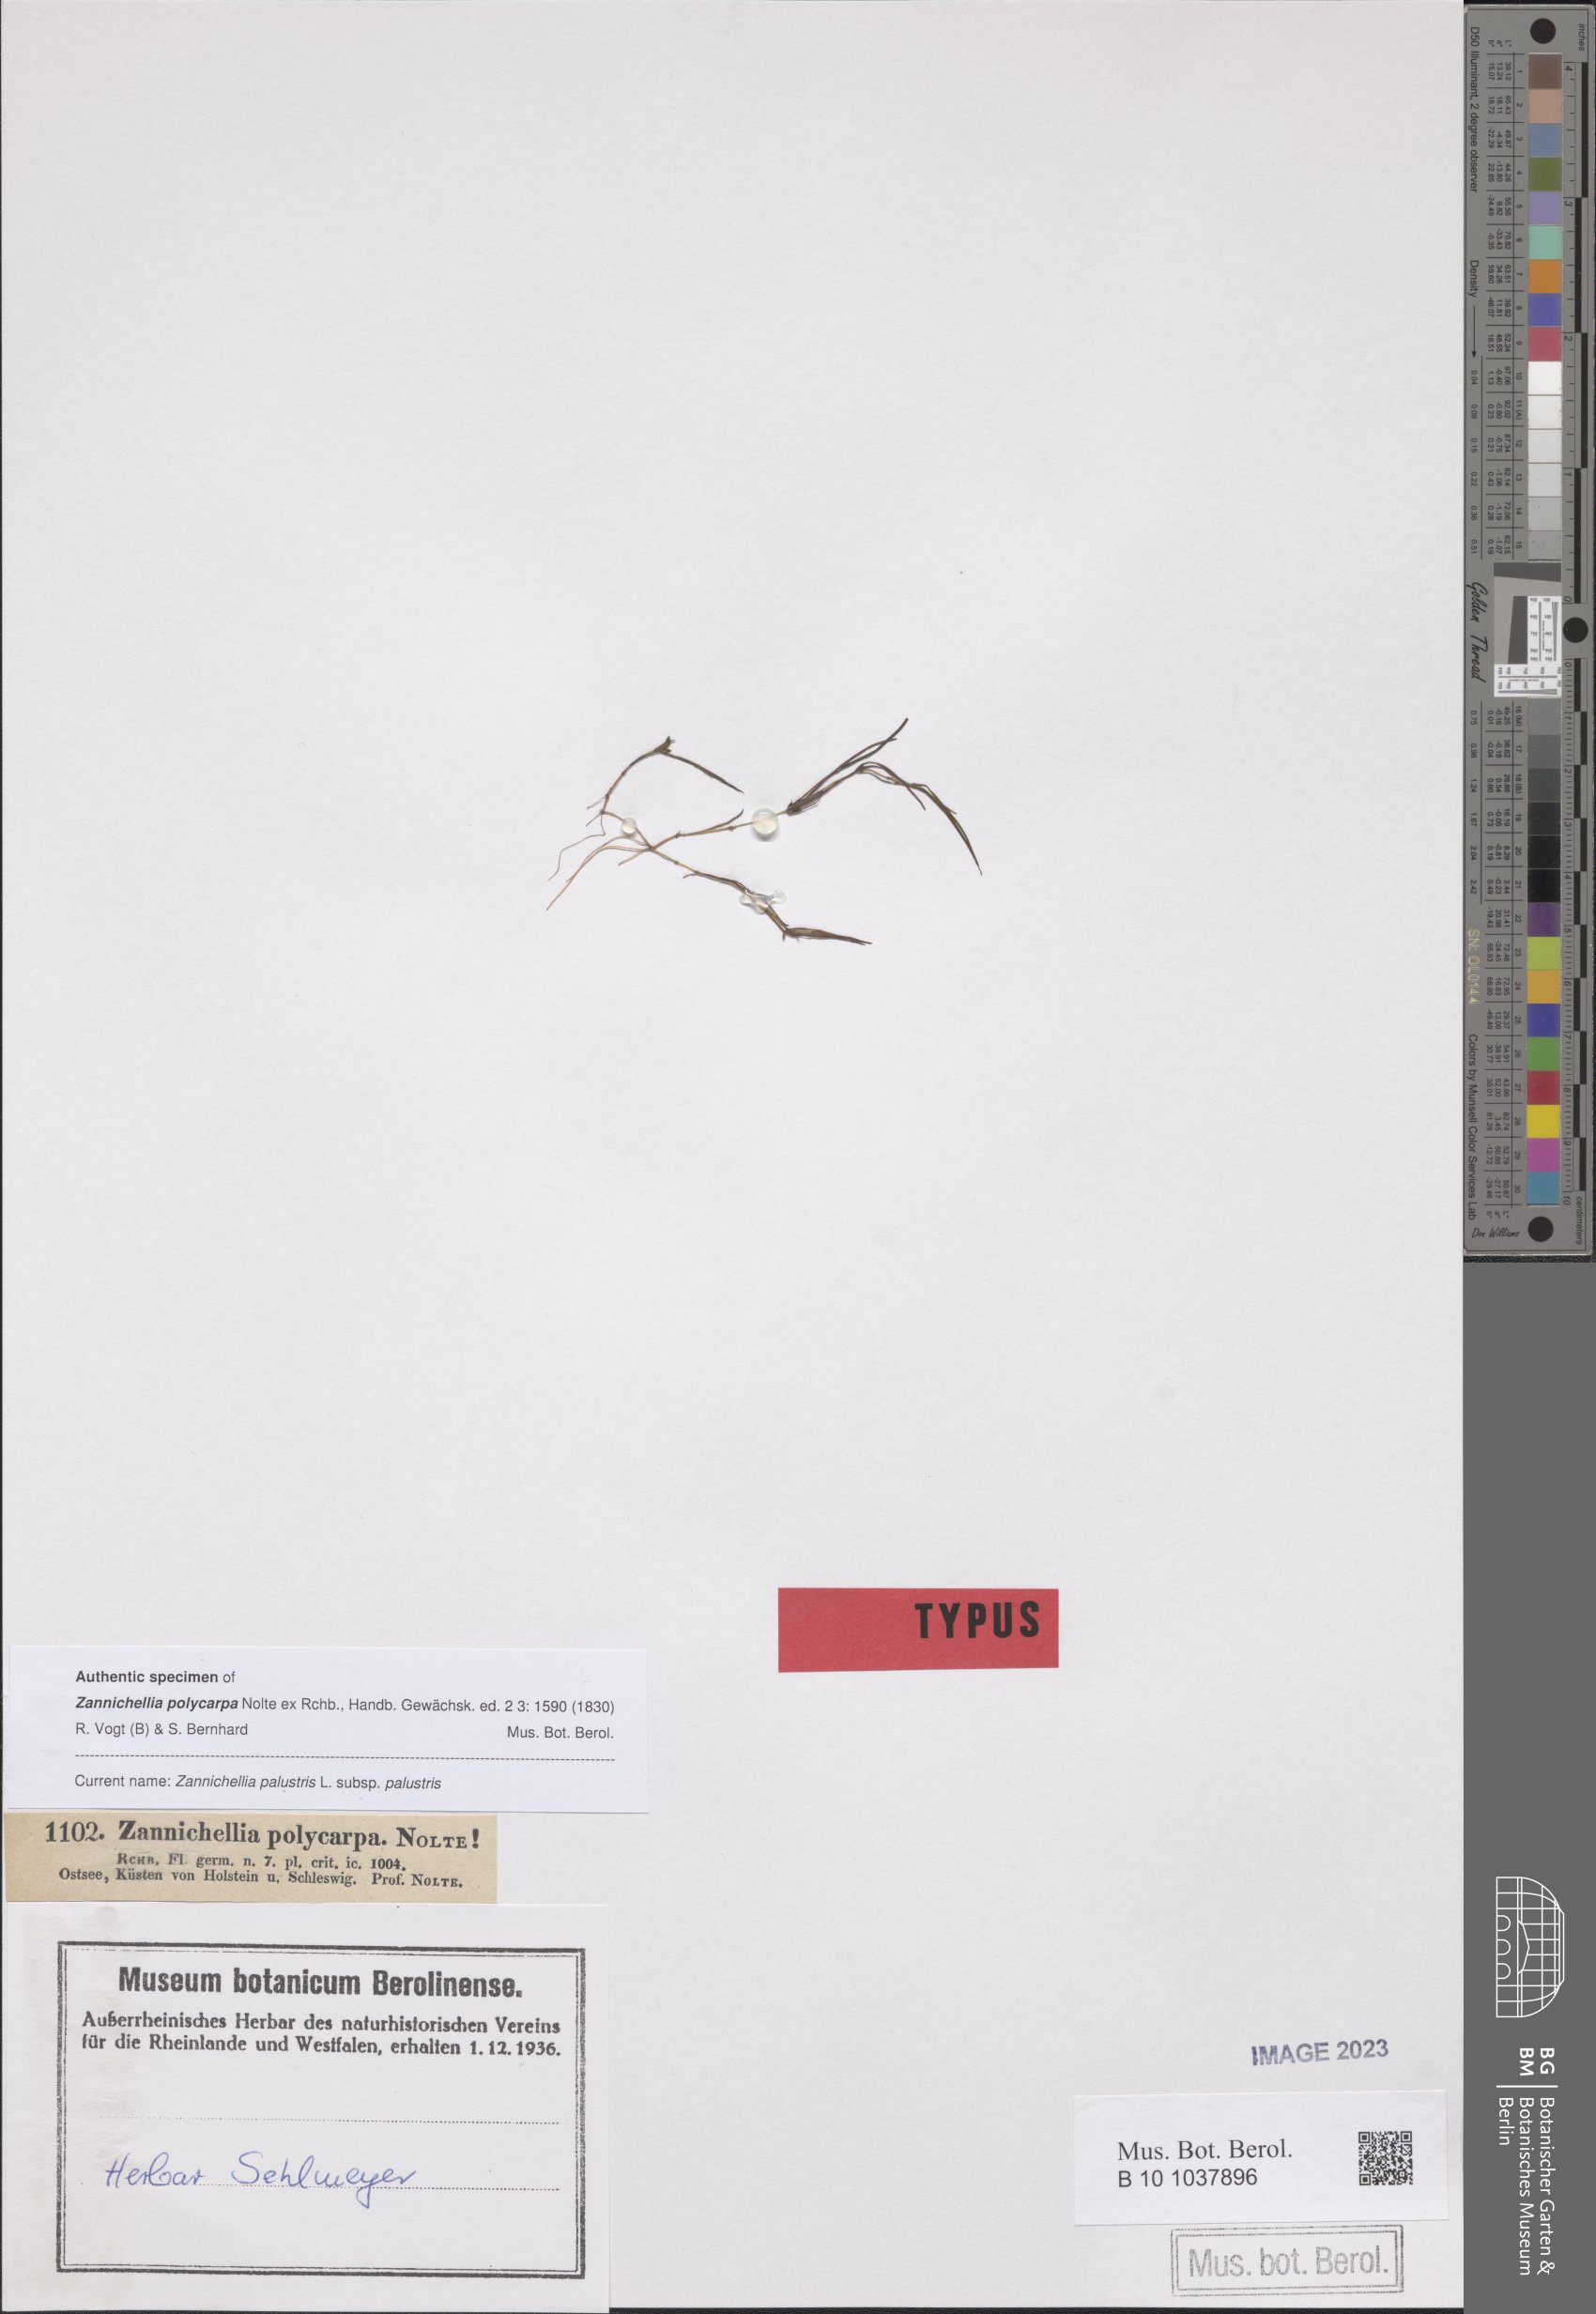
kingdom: Plantae
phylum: Tracheophyta
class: Liliopsida
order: Alismatales
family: Potamogetonaceae
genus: Zannichellia
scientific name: Zannichellia palustris
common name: Horned pondweed
